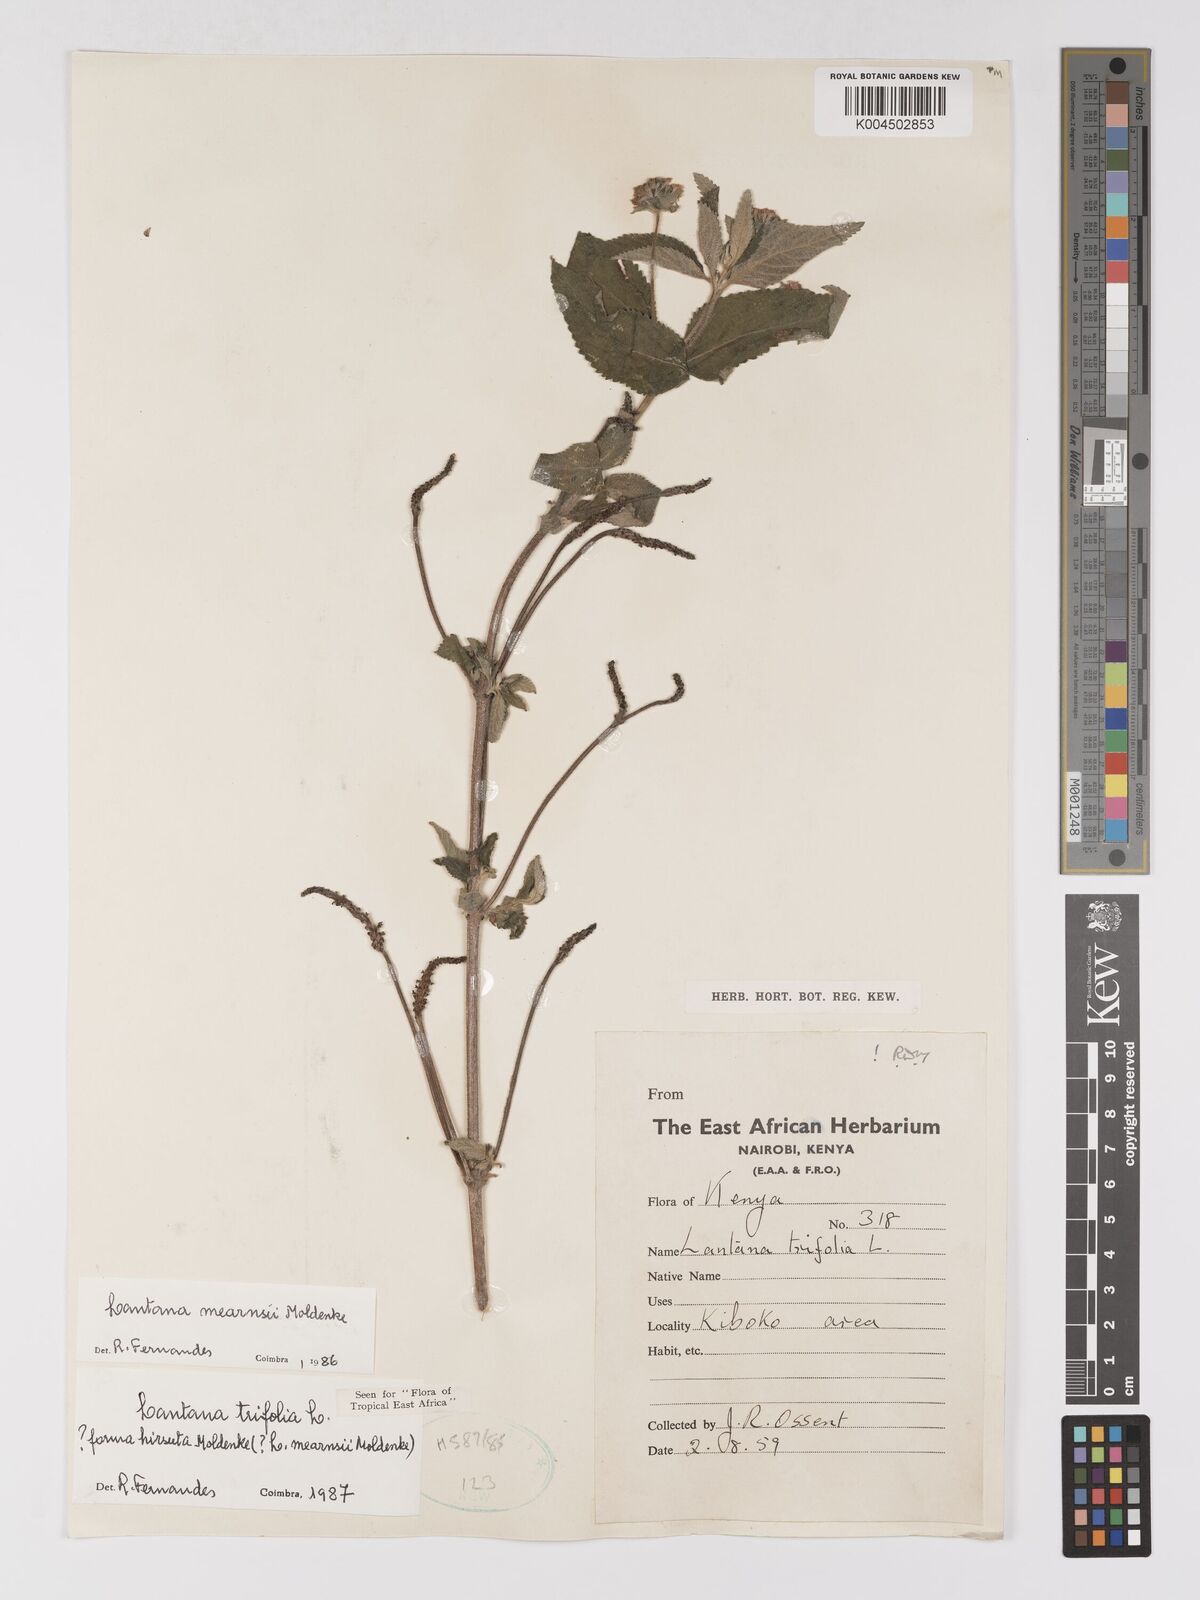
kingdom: Plantae
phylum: Tracheophyta
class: Magnoliopsida
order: Lamiales
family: Verbenaceae
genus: Lantana
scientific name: Lantana trifolia
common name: Sweet-sage
